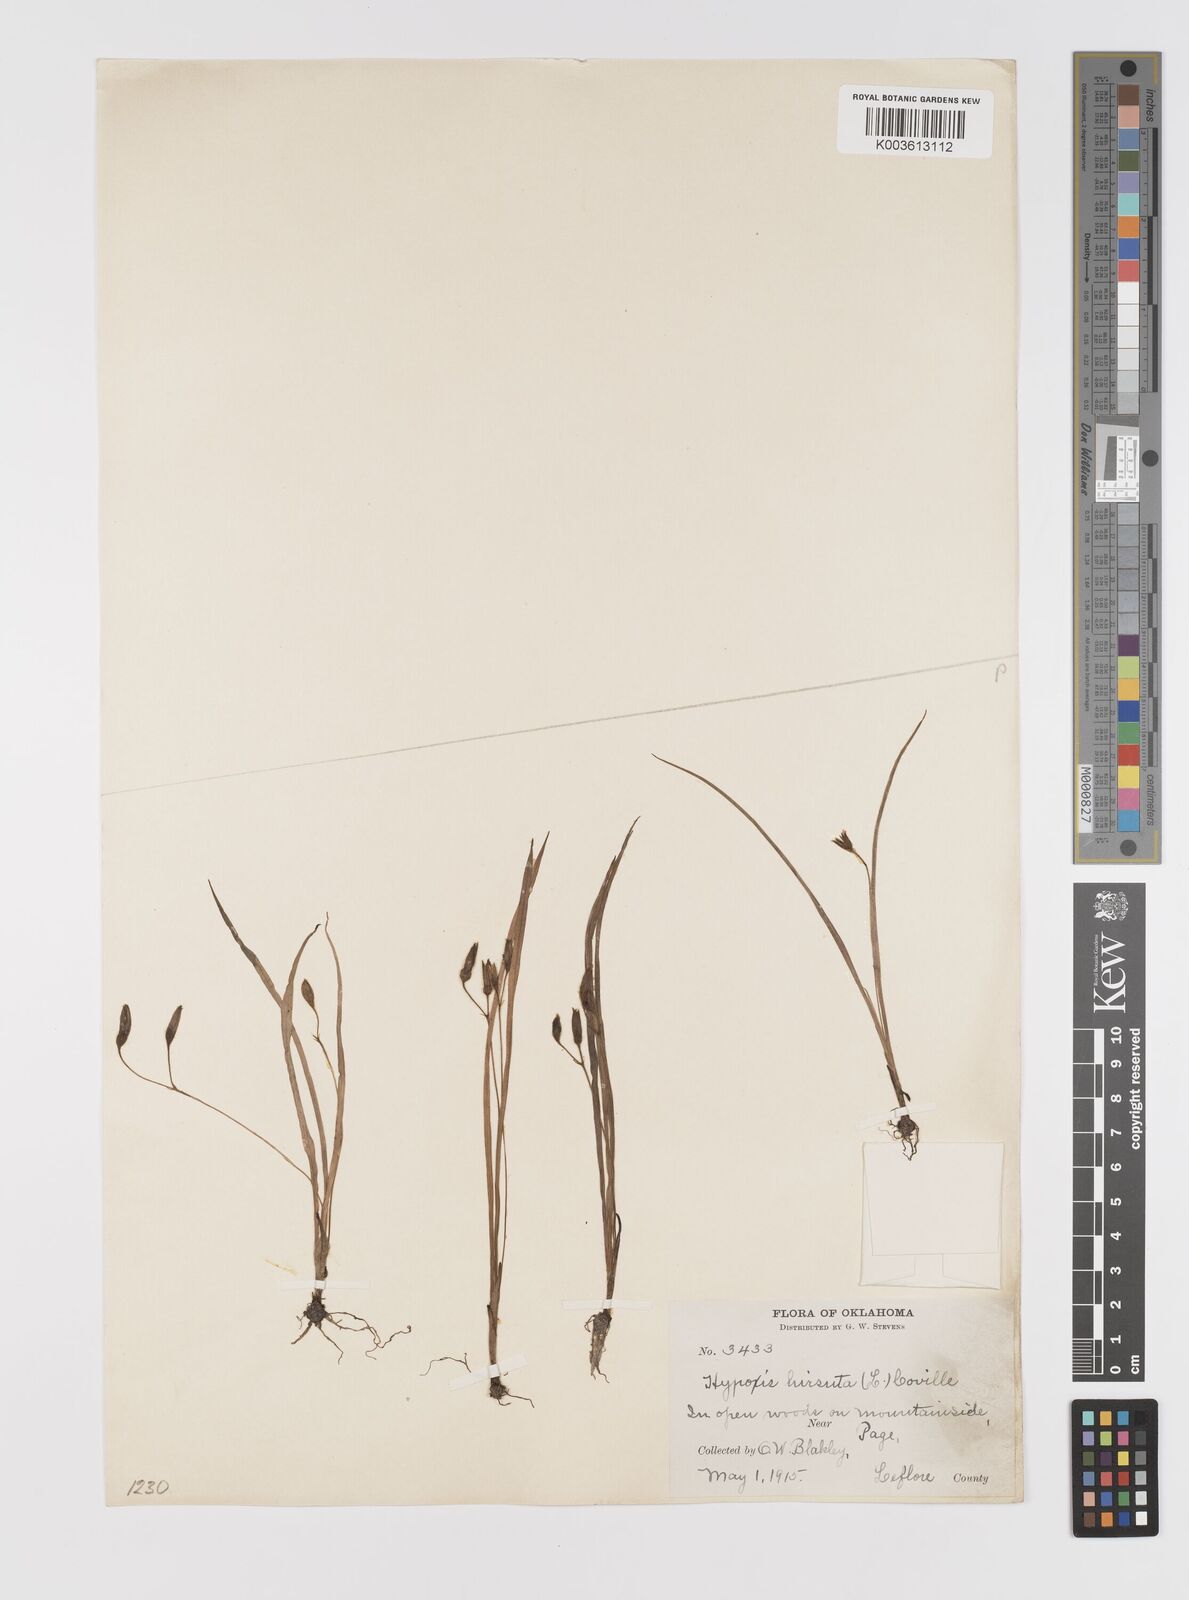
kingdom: Plantae
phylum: Tracheophyta
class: Liliopsida
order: Asparagales
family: Hypoxidaceae
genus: Hypoxis
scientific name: Hypoxis hirsuta
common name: Common goldstar
